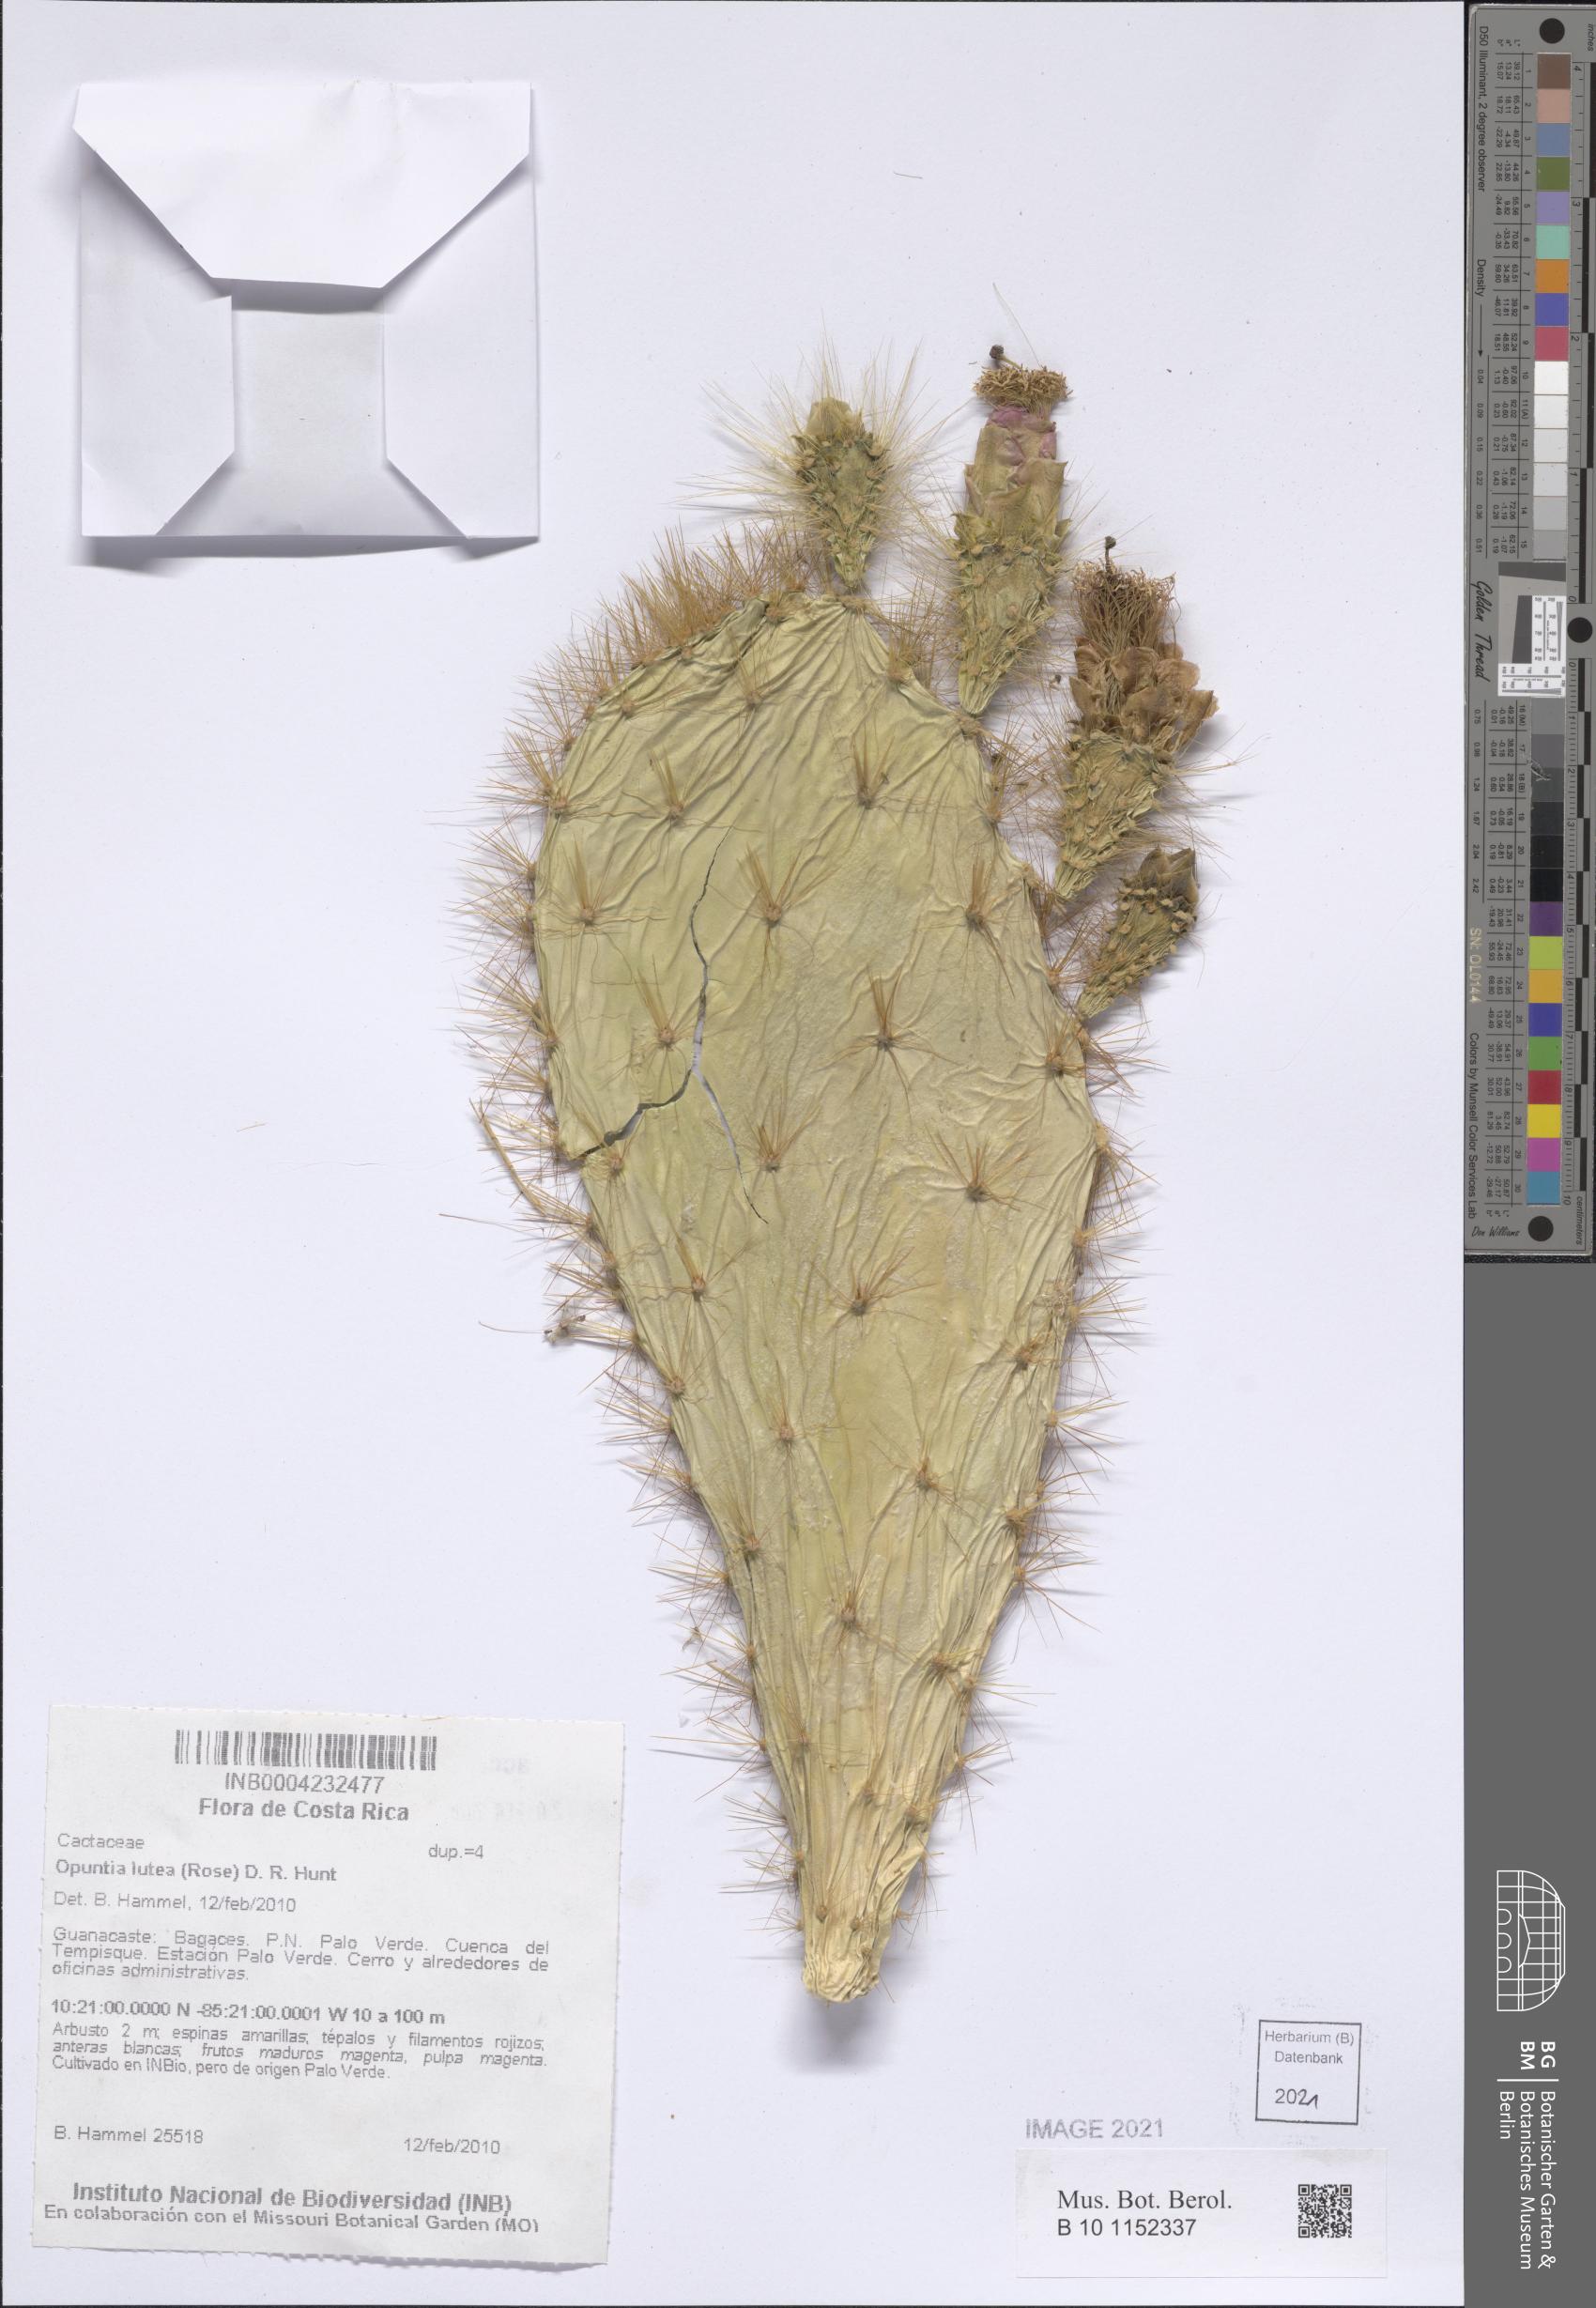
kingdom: Plantae
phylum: Tracheophyta
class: Magnoliopsida
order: Caryophyllales
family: Cactaceae
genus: Opuntia
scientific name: Opuntia lutea
